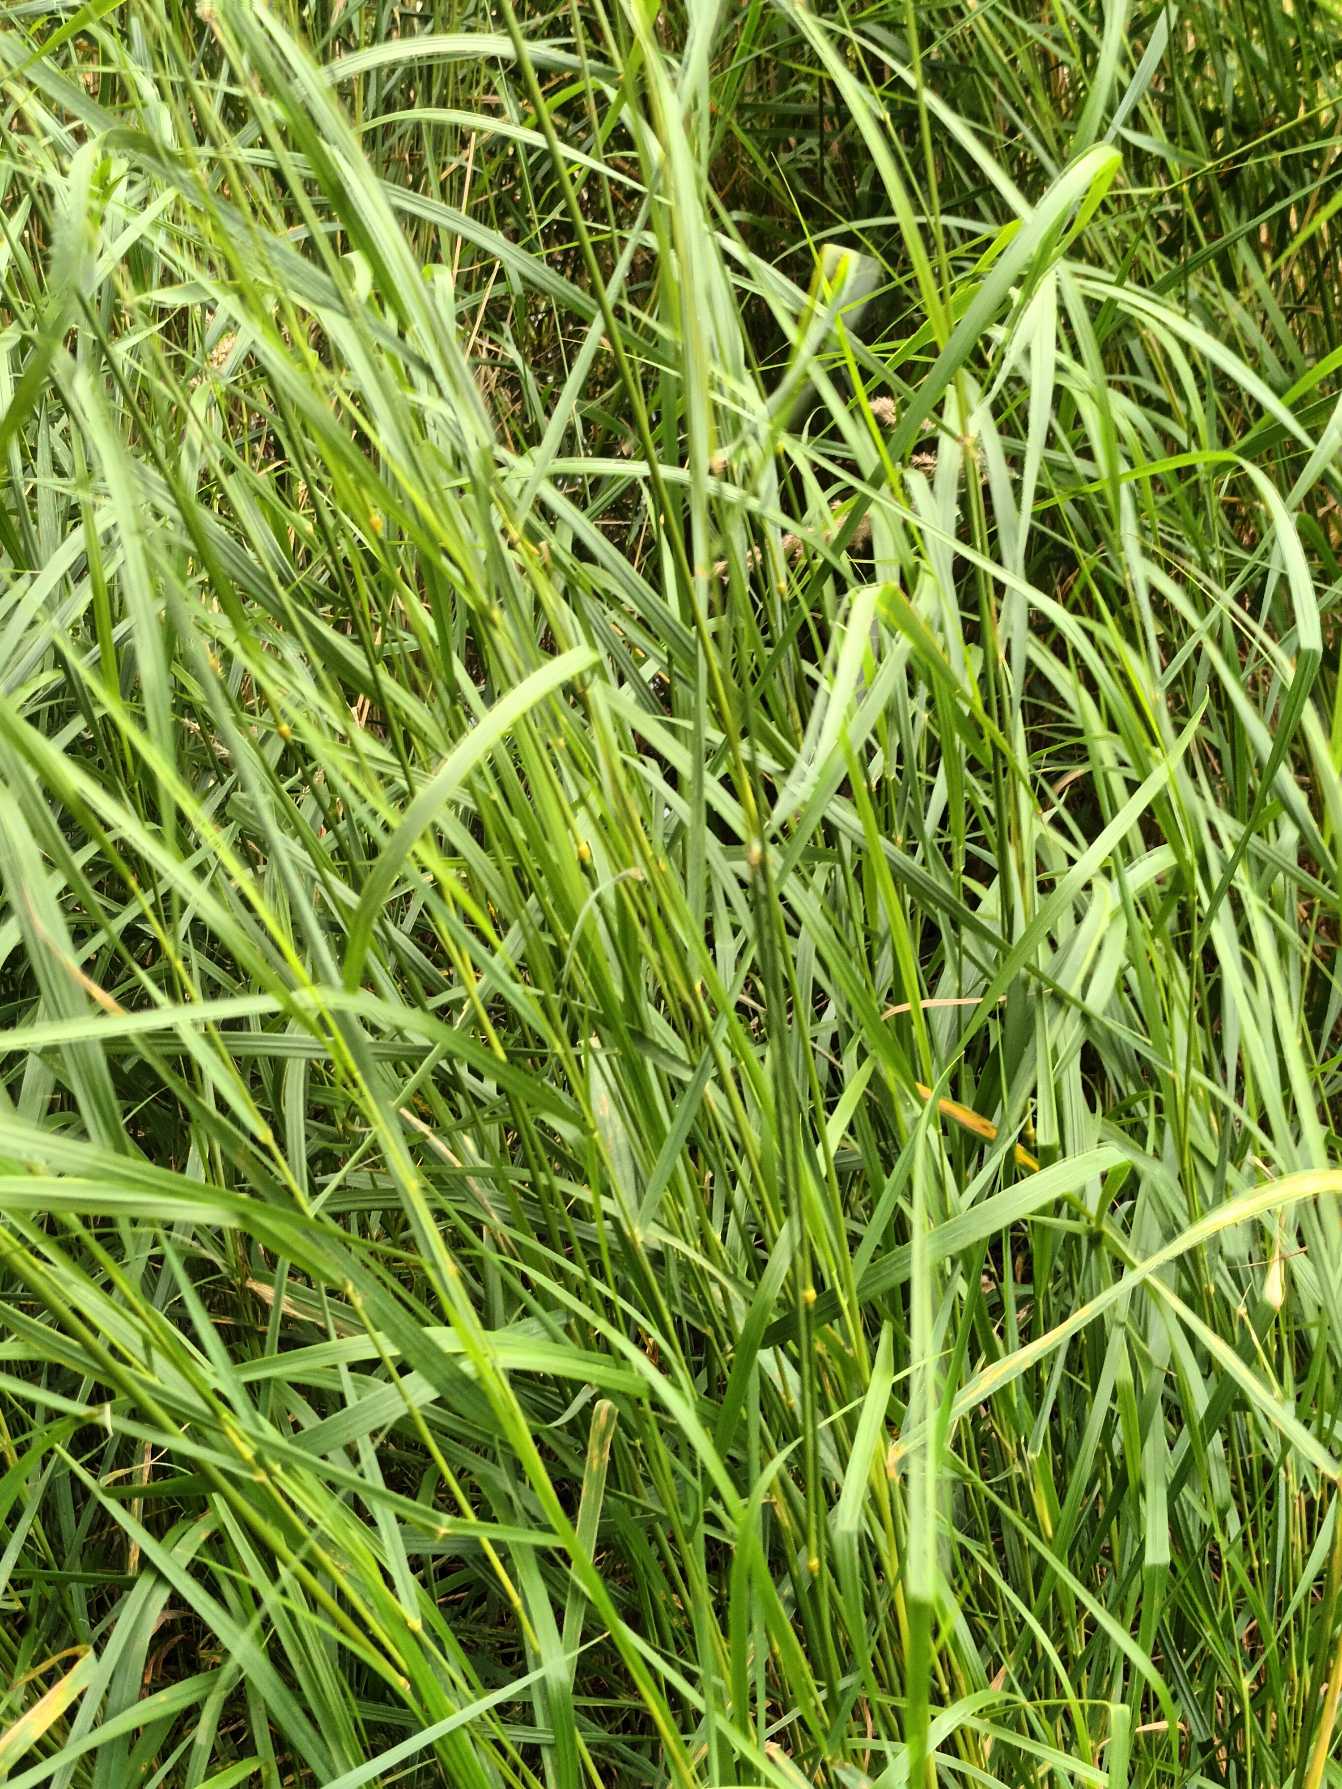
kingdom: Plantae
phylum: Tracheophyta
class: Liliopsida
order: Poales
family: Poaceae
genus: Calamagrostis
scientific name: Calamagrostis canescens
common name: Eng-rørhvene
